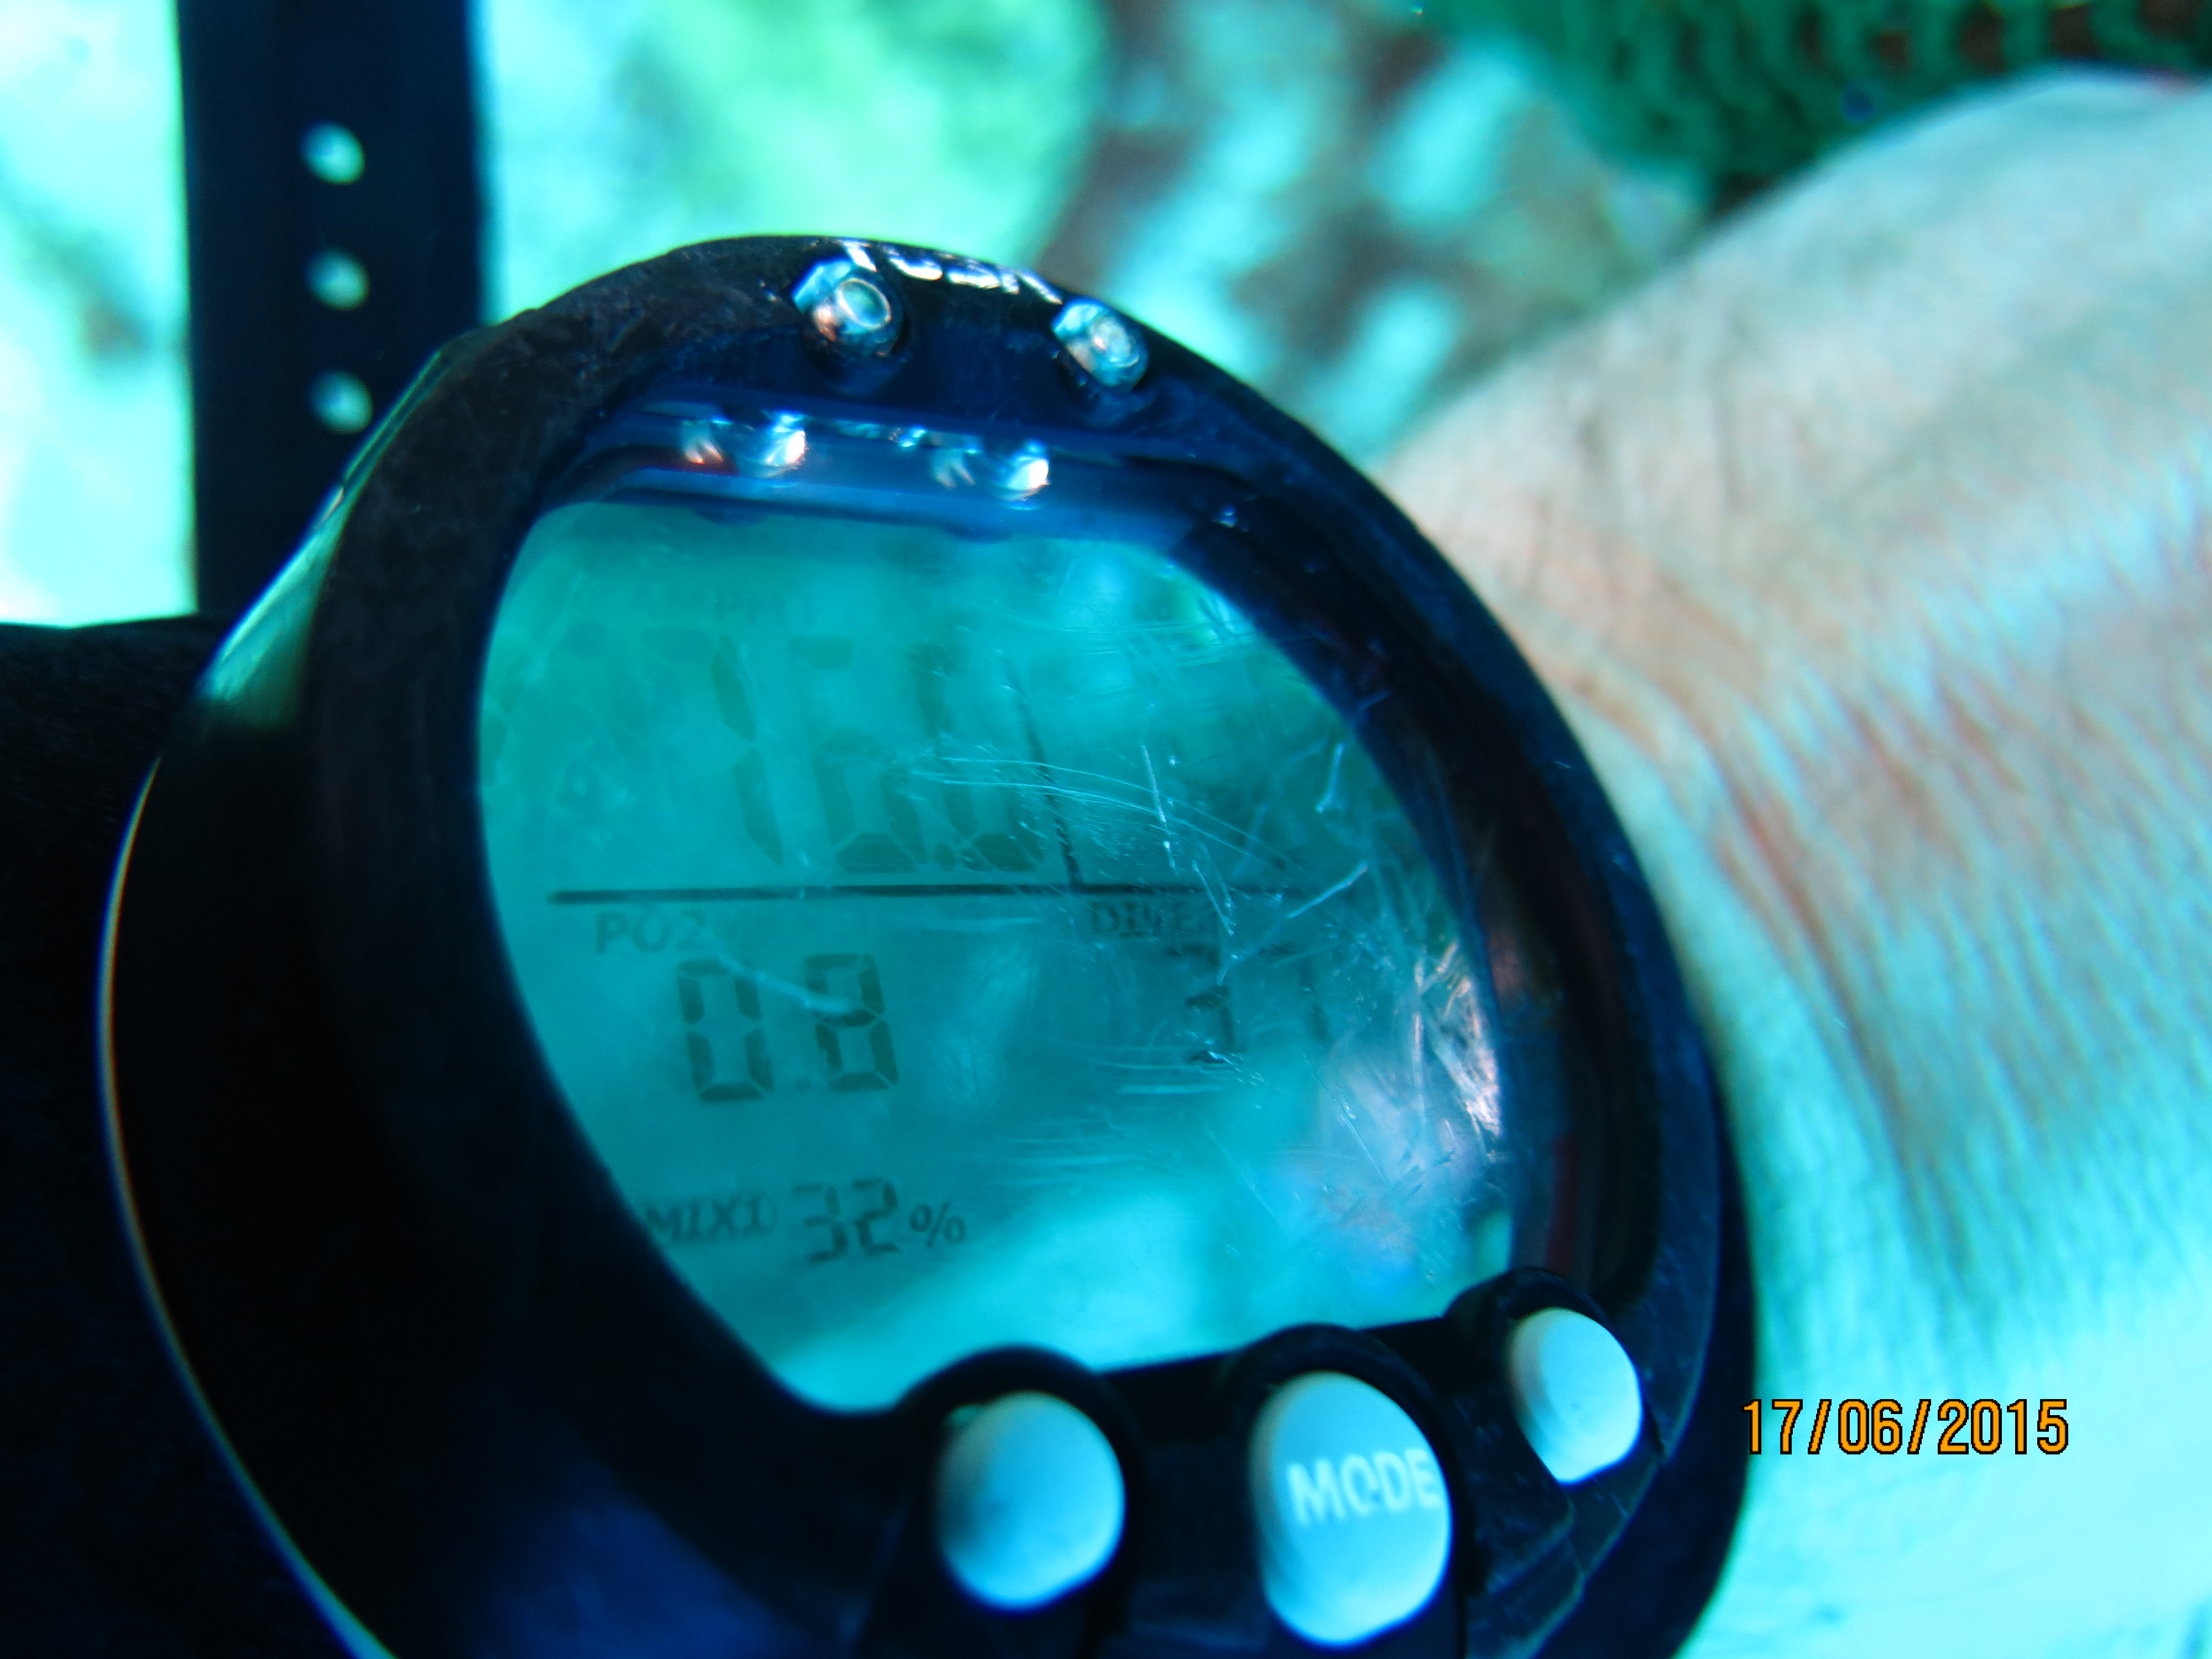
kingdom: Animalia
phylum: Porifera
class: Demospongiae
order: Haplosclerida
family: Callyspongiidae
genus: Callyspongia
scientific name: Callyspongia aculeata
